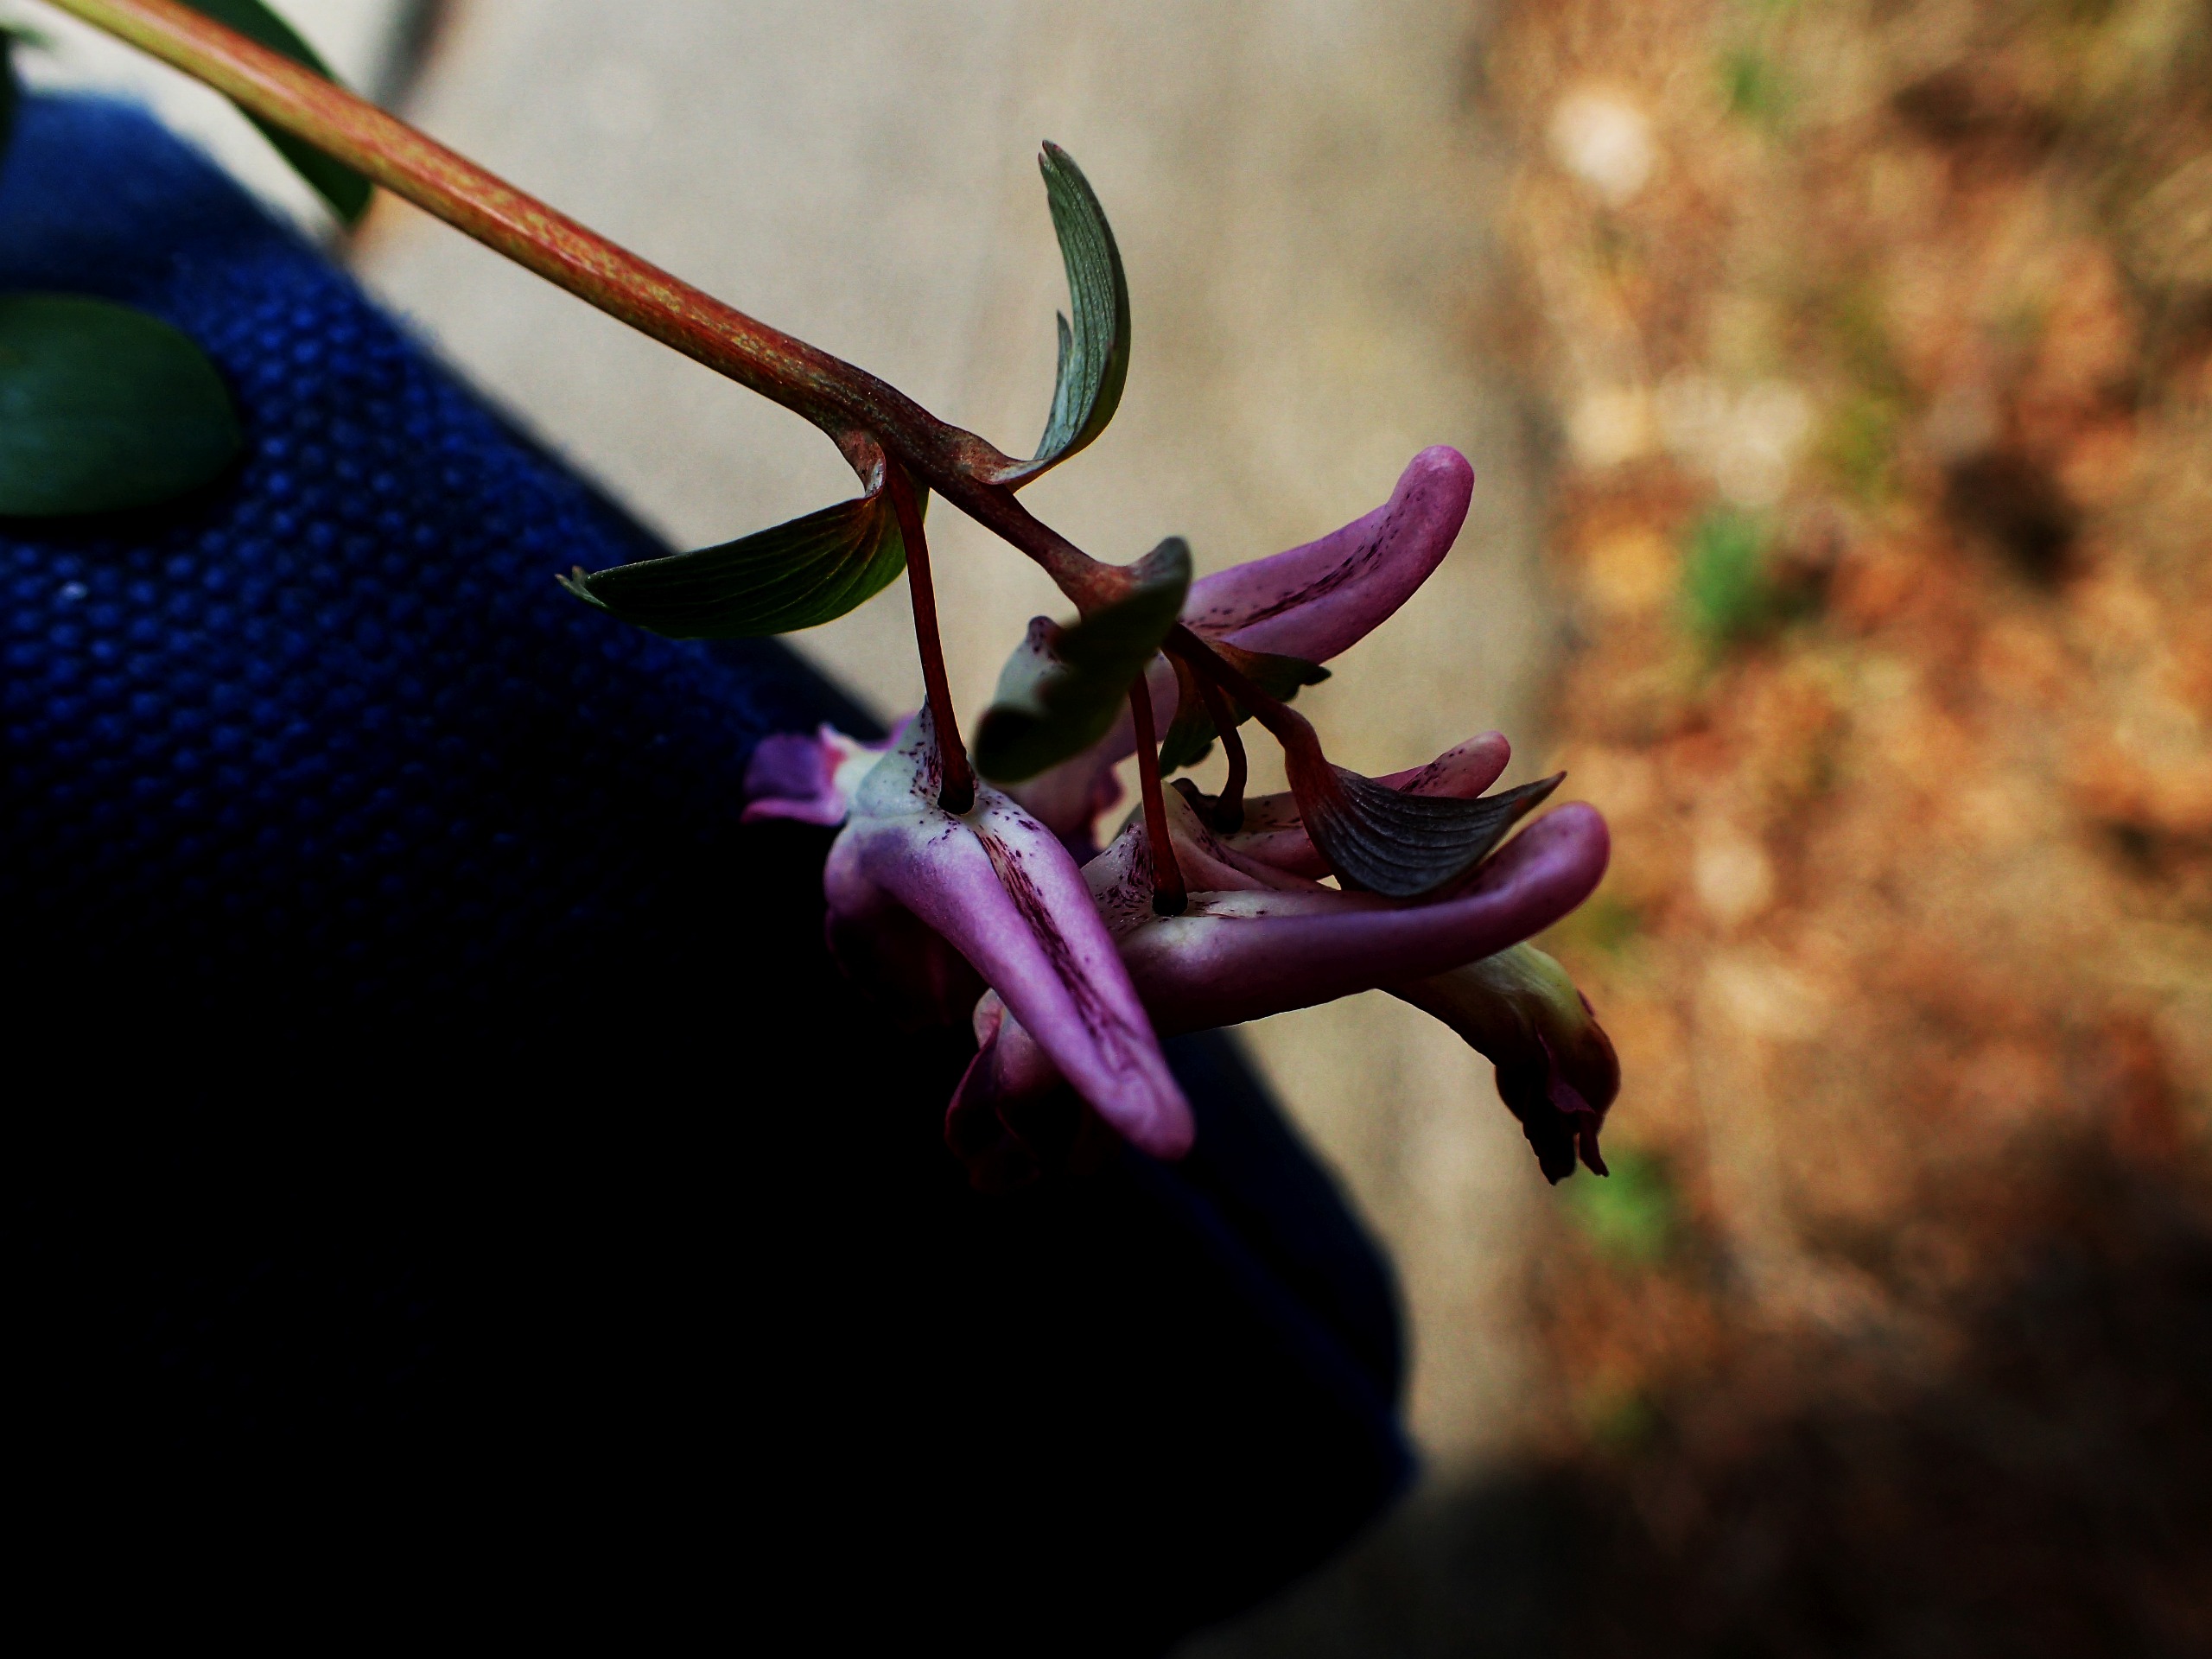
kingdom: Plantae
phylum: Tracheophyta
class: Magnoliopsida
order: Ranunculales
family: Papaveraceae
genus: Corydalis
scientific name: Corydalis solida
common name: Langstilket lærkespore
